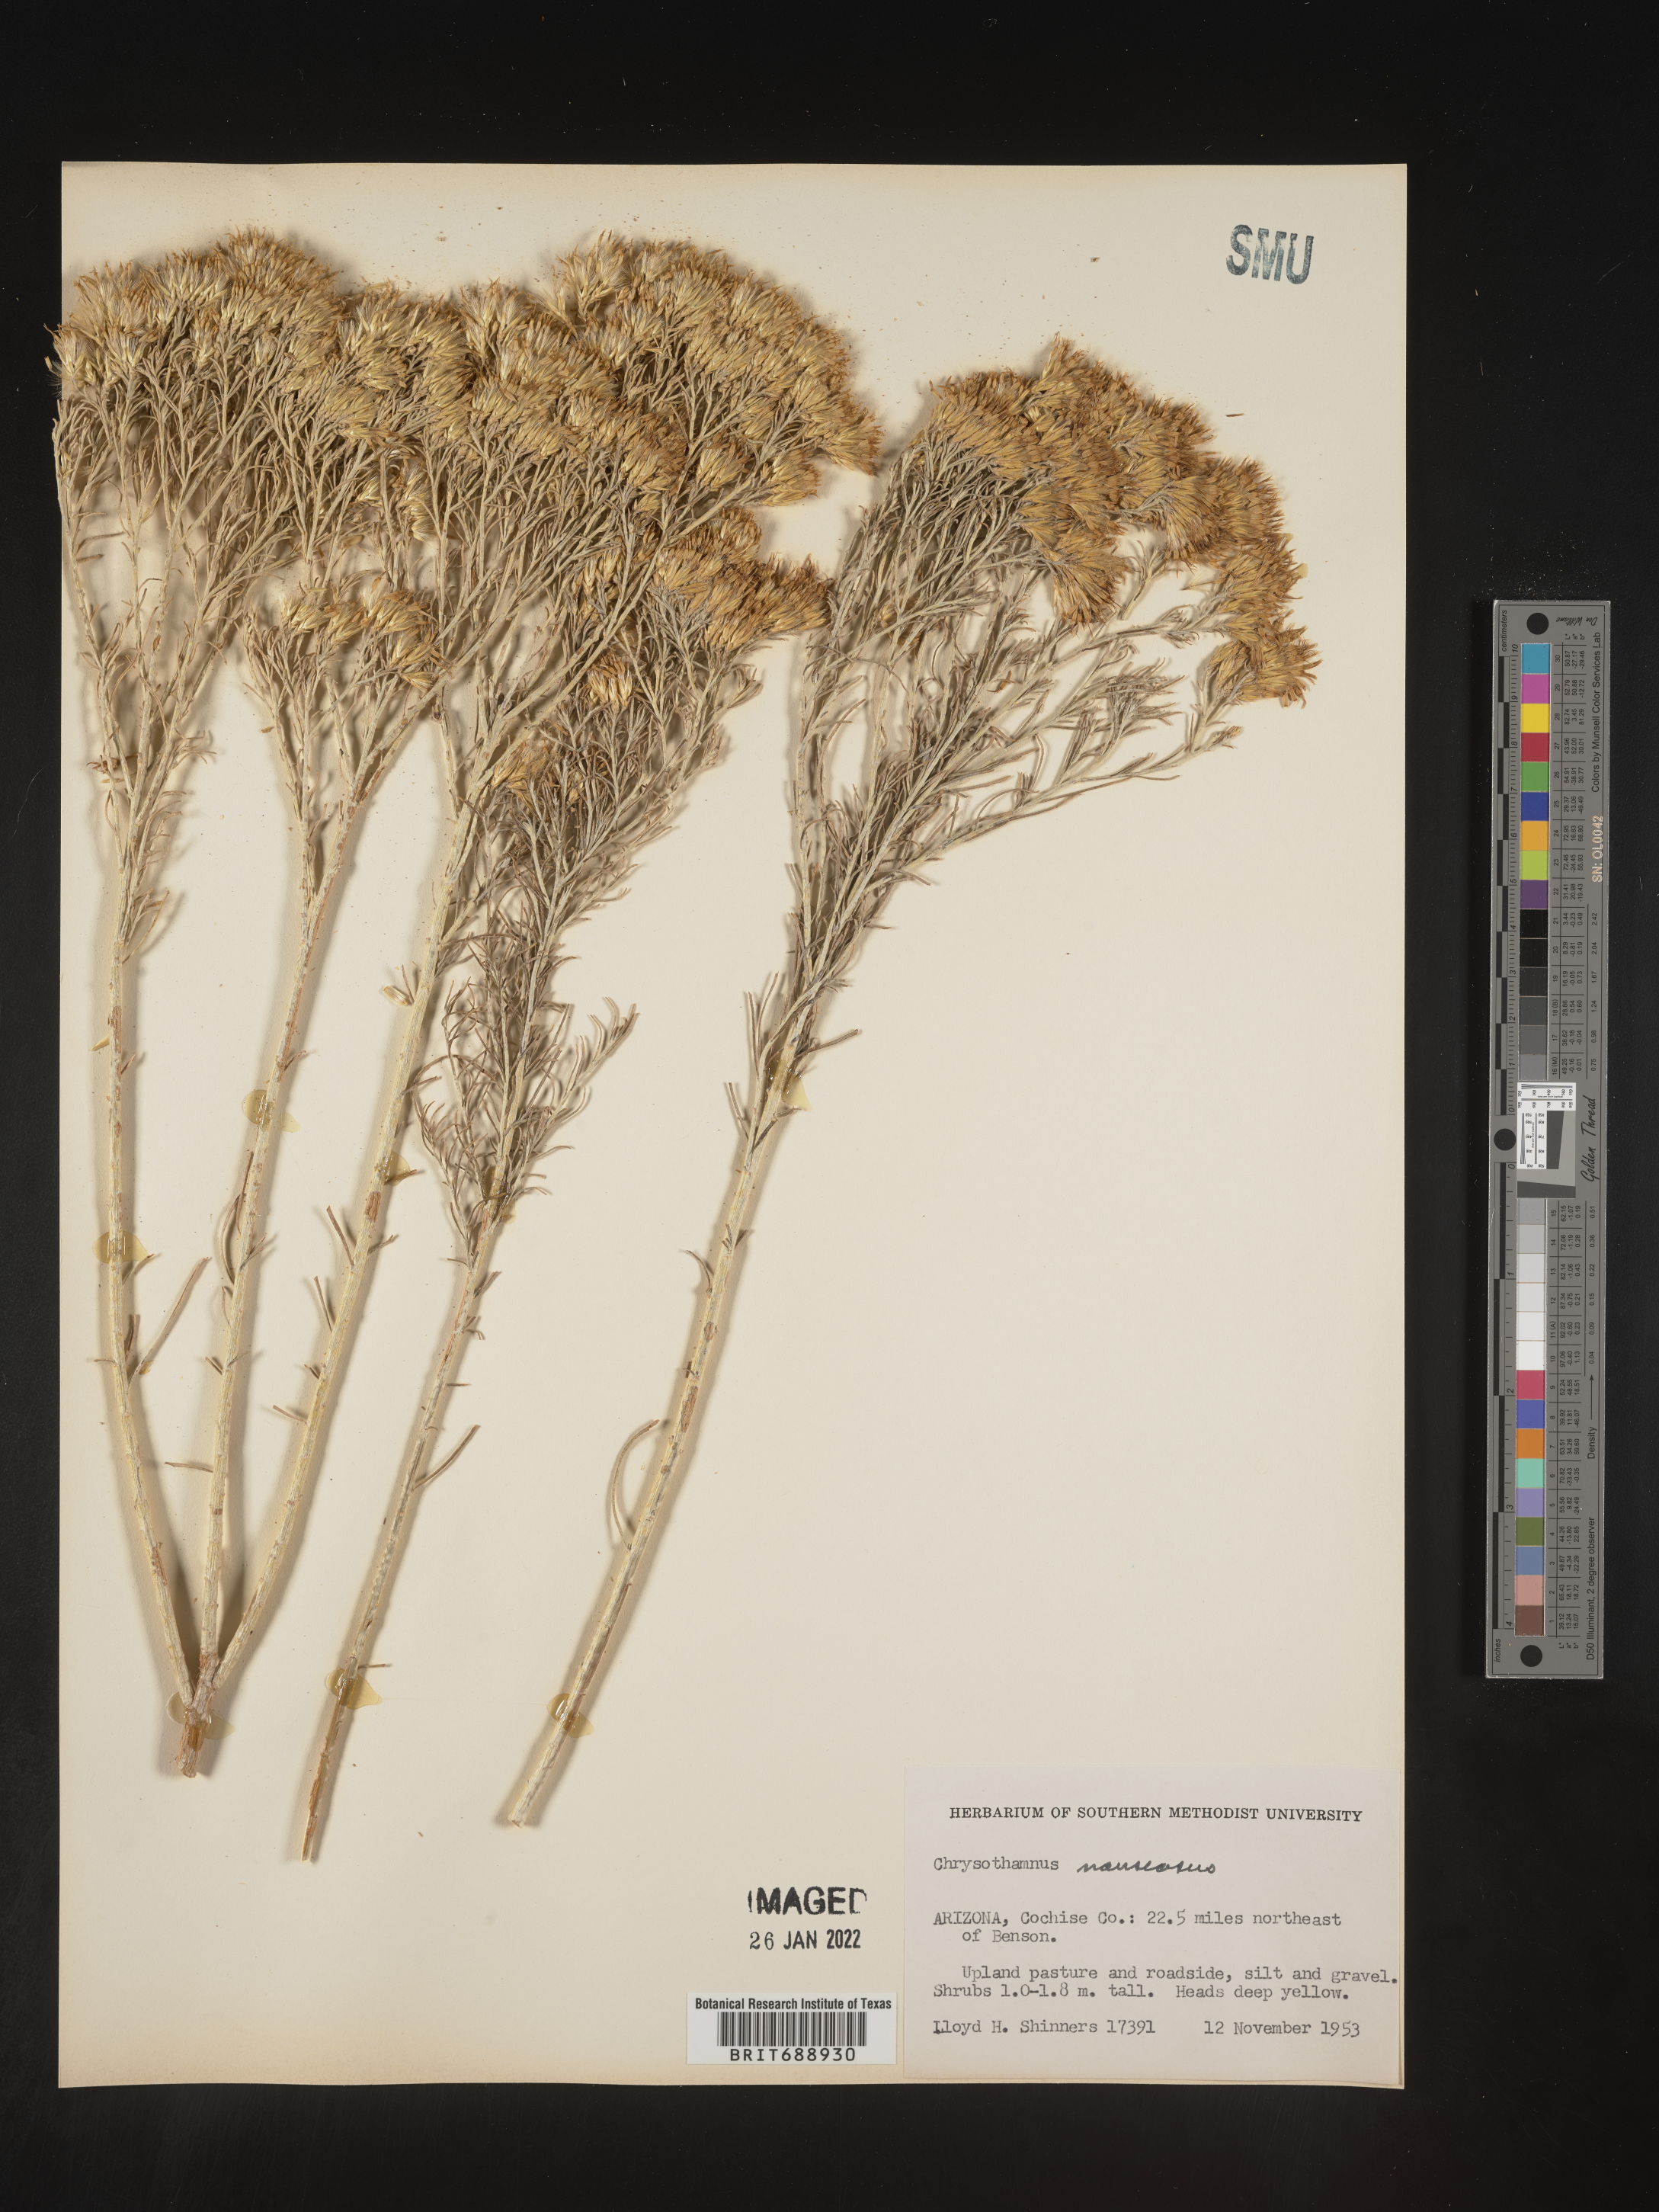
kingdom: Plantae
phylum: Tracheophyta
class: Magnoliopsida
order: Asterales
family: Asteraceae
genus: Ericameria
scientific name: Ericameria nauseosa
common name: Rubber rabbitbrush
